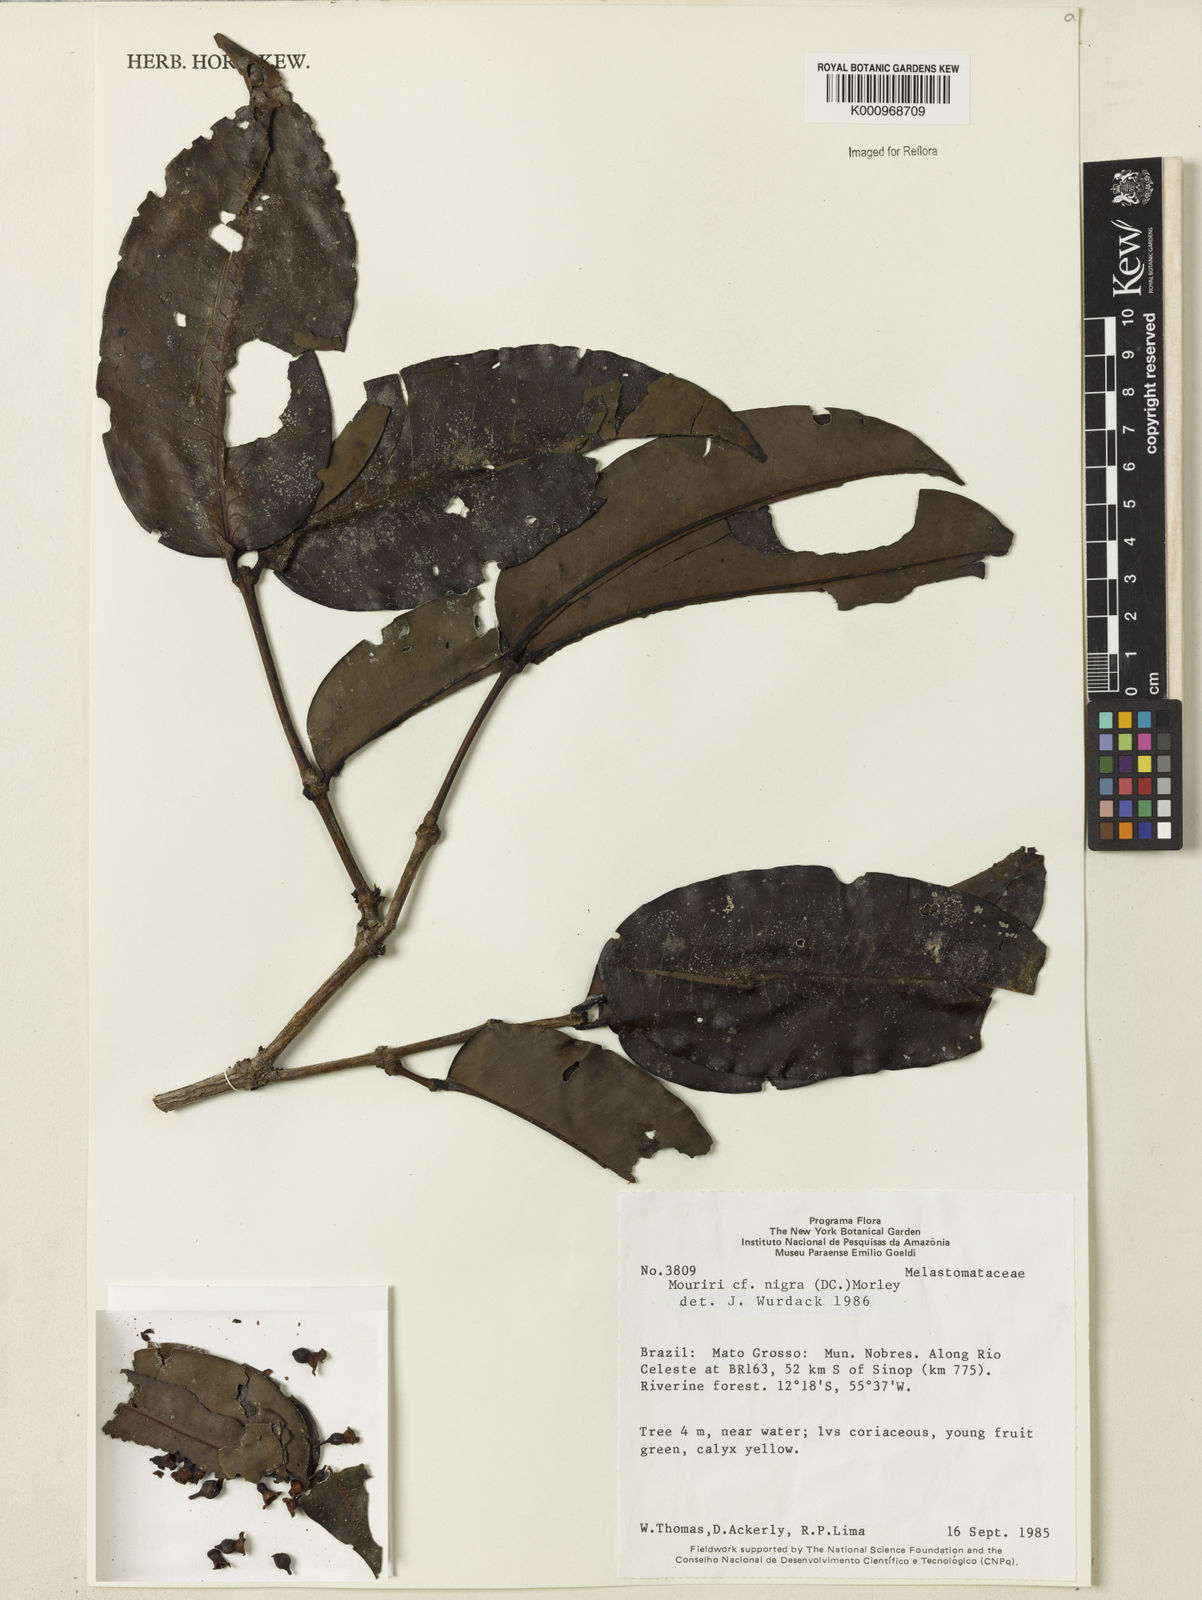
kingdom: Plantae
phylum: Tracheophyta
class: Magnoliopsida
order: Myrtales
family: Melastomataceae
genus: Mouriri
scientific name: Mouriri nigra
